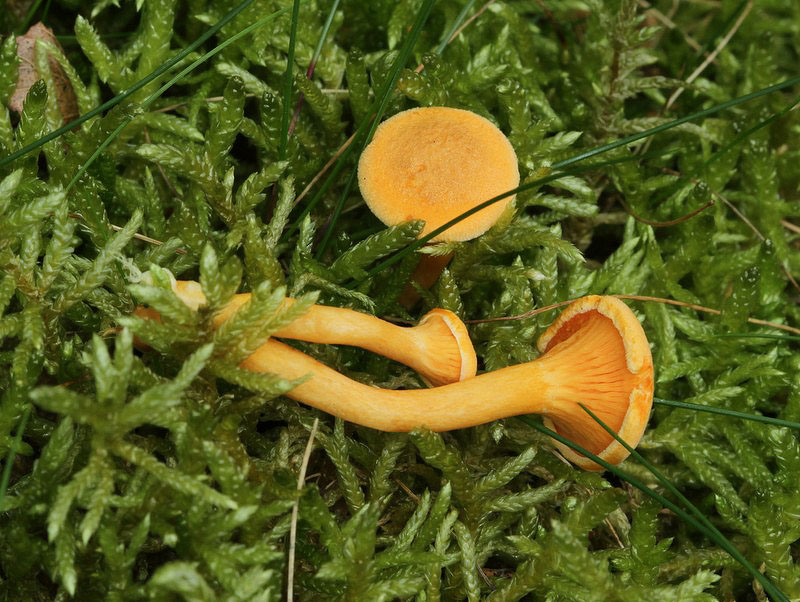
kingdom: Fungi
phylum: Basidiomycota
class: Agaricomycetes
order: Boletales
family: Hygrophoropsidaceae
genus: Hygrophoropsis
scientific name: Hygrophoropsis aurantiaca
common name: almindelig orangekantarel
